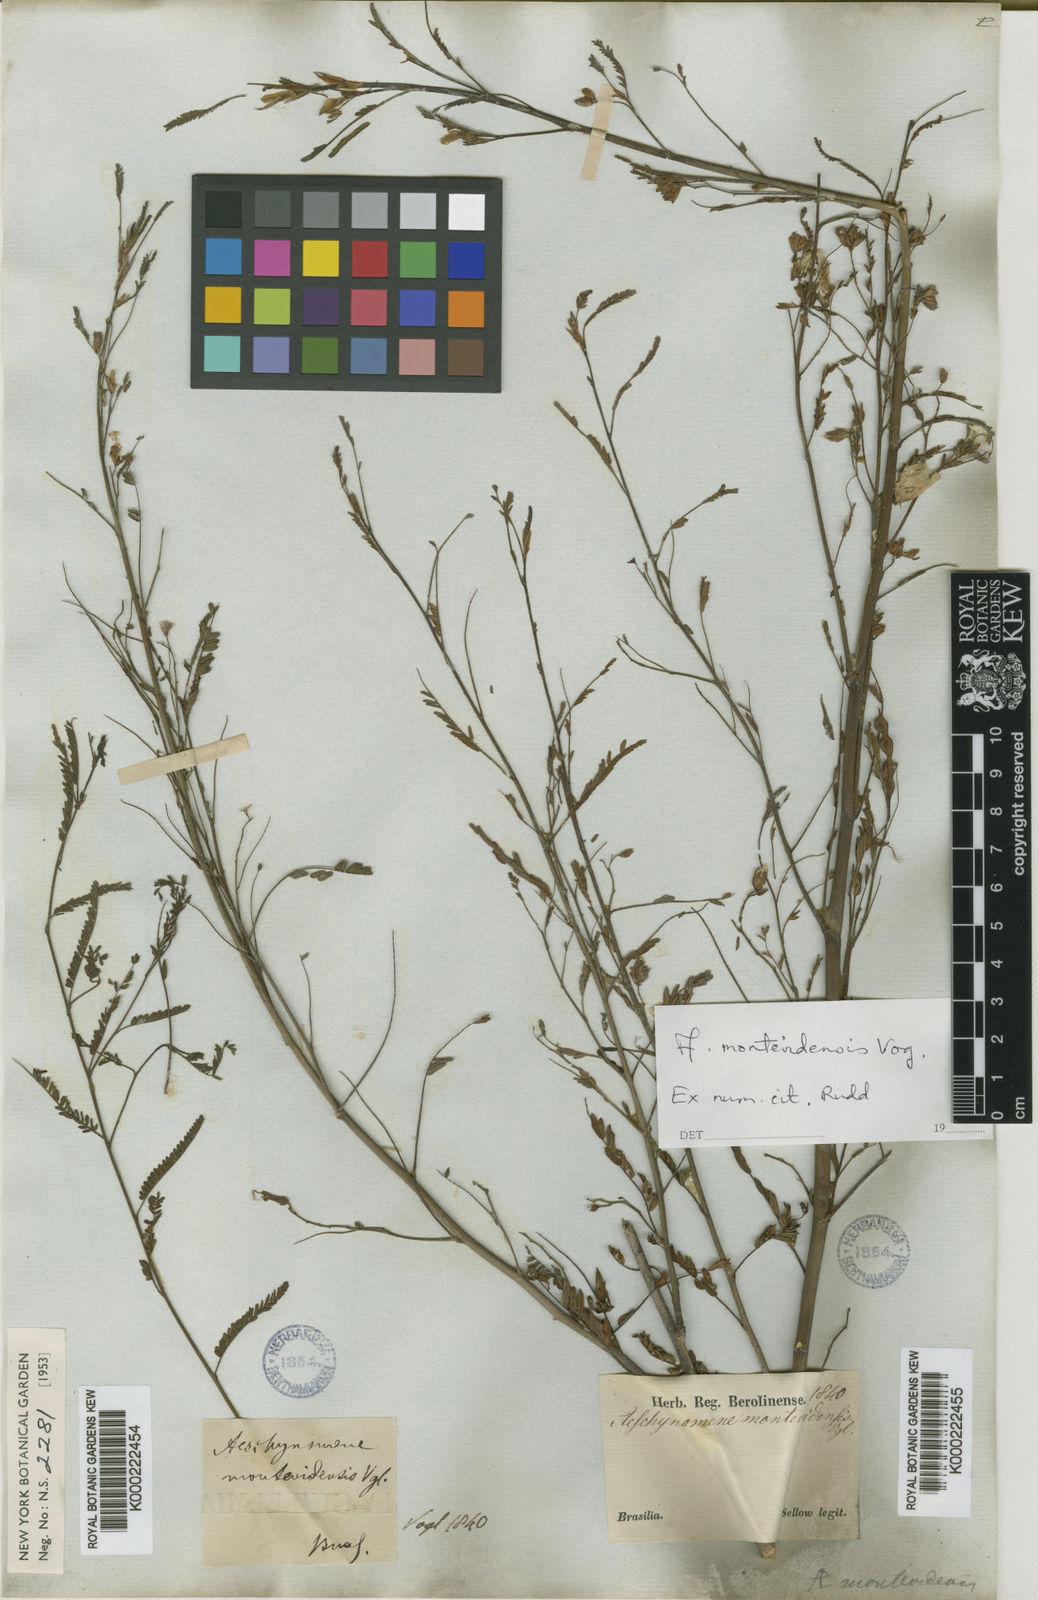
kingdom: Plantae
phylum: Tracheophyta
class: Magnoliopsida
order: Fabales
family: Fabaceae
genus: Aeschynomene
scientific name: Aeschynomene montevidensis
